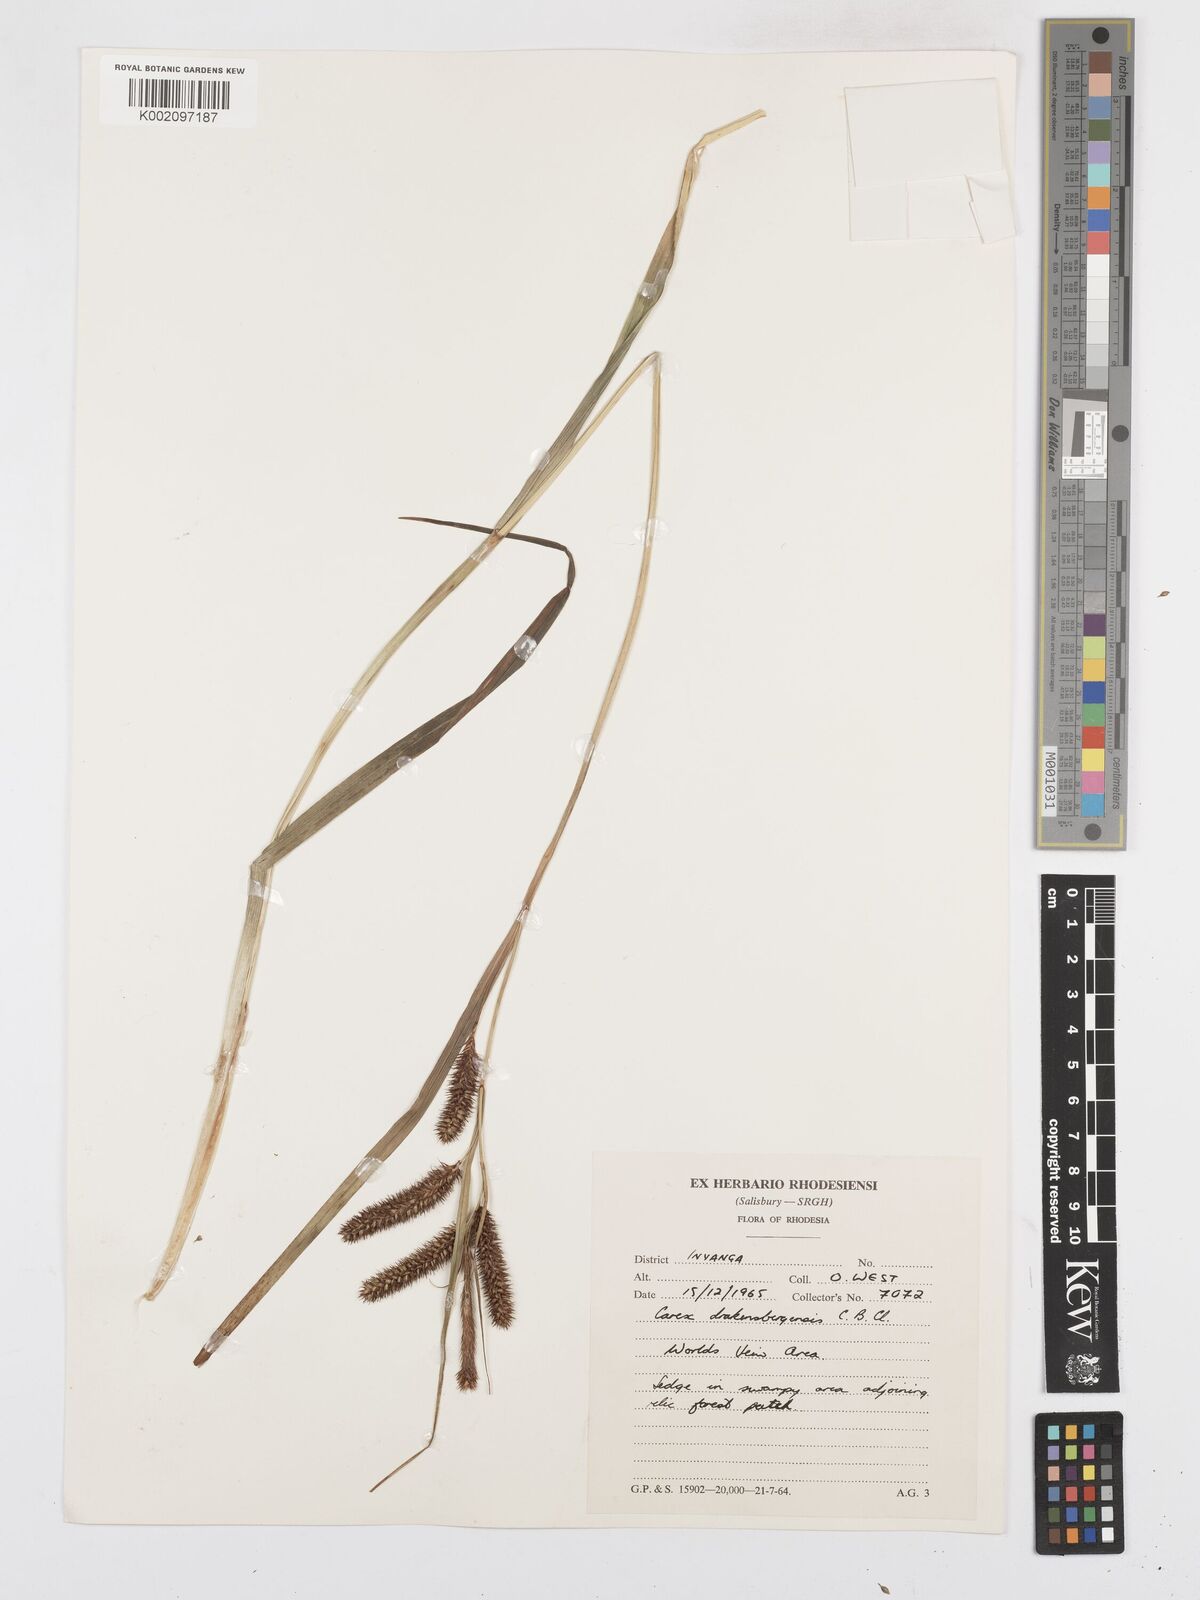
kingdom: Plantae
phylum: Tracheophyta
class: Liliopsida
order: Poales
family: Cyperaceae
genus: Carex
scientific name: Carex cognata
